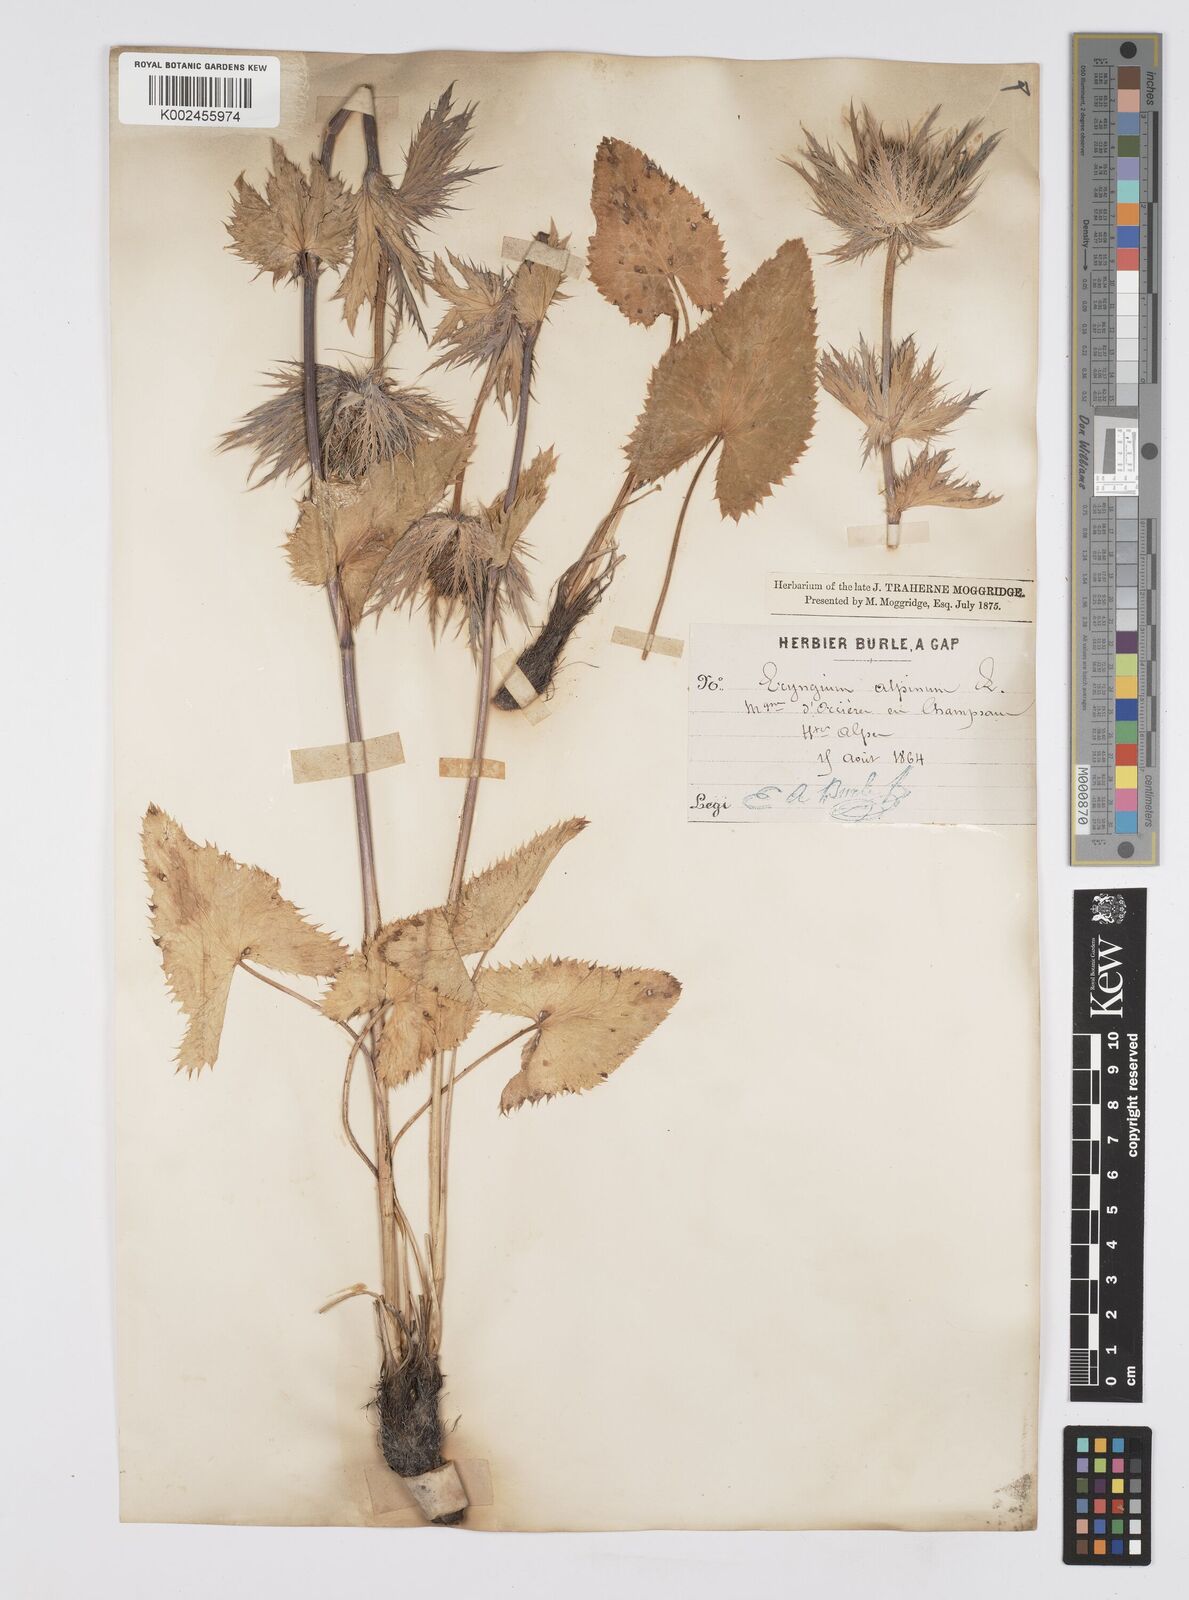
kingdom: Plantae
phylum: Tracheophyta
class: Magnoliopsida
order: Apiales
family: Apiaceae
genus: Eryngium
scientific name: Eryngium alpinum
